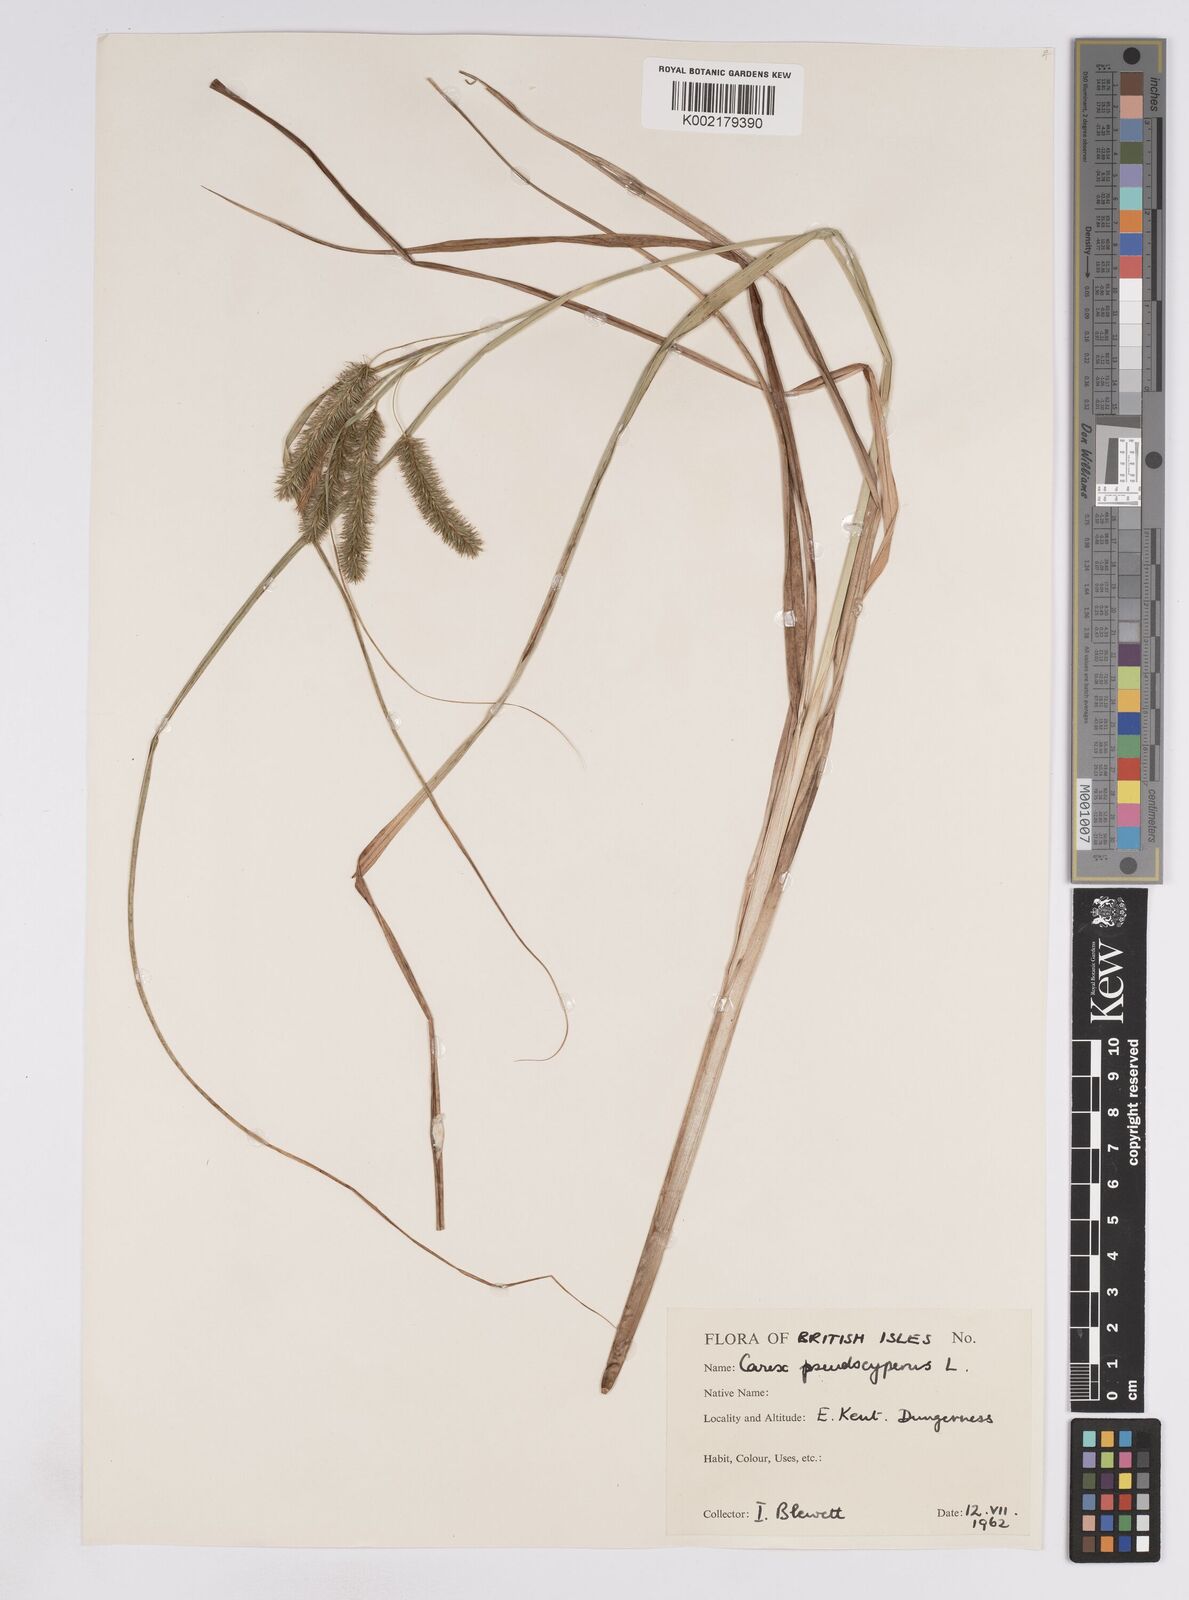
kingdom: Plantae
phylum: Tracheophyta
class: Liliopsida
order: Poales
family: Cyperaceae
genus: Carex
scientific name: Carex pseudocyperus
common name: Cyperus sedge
